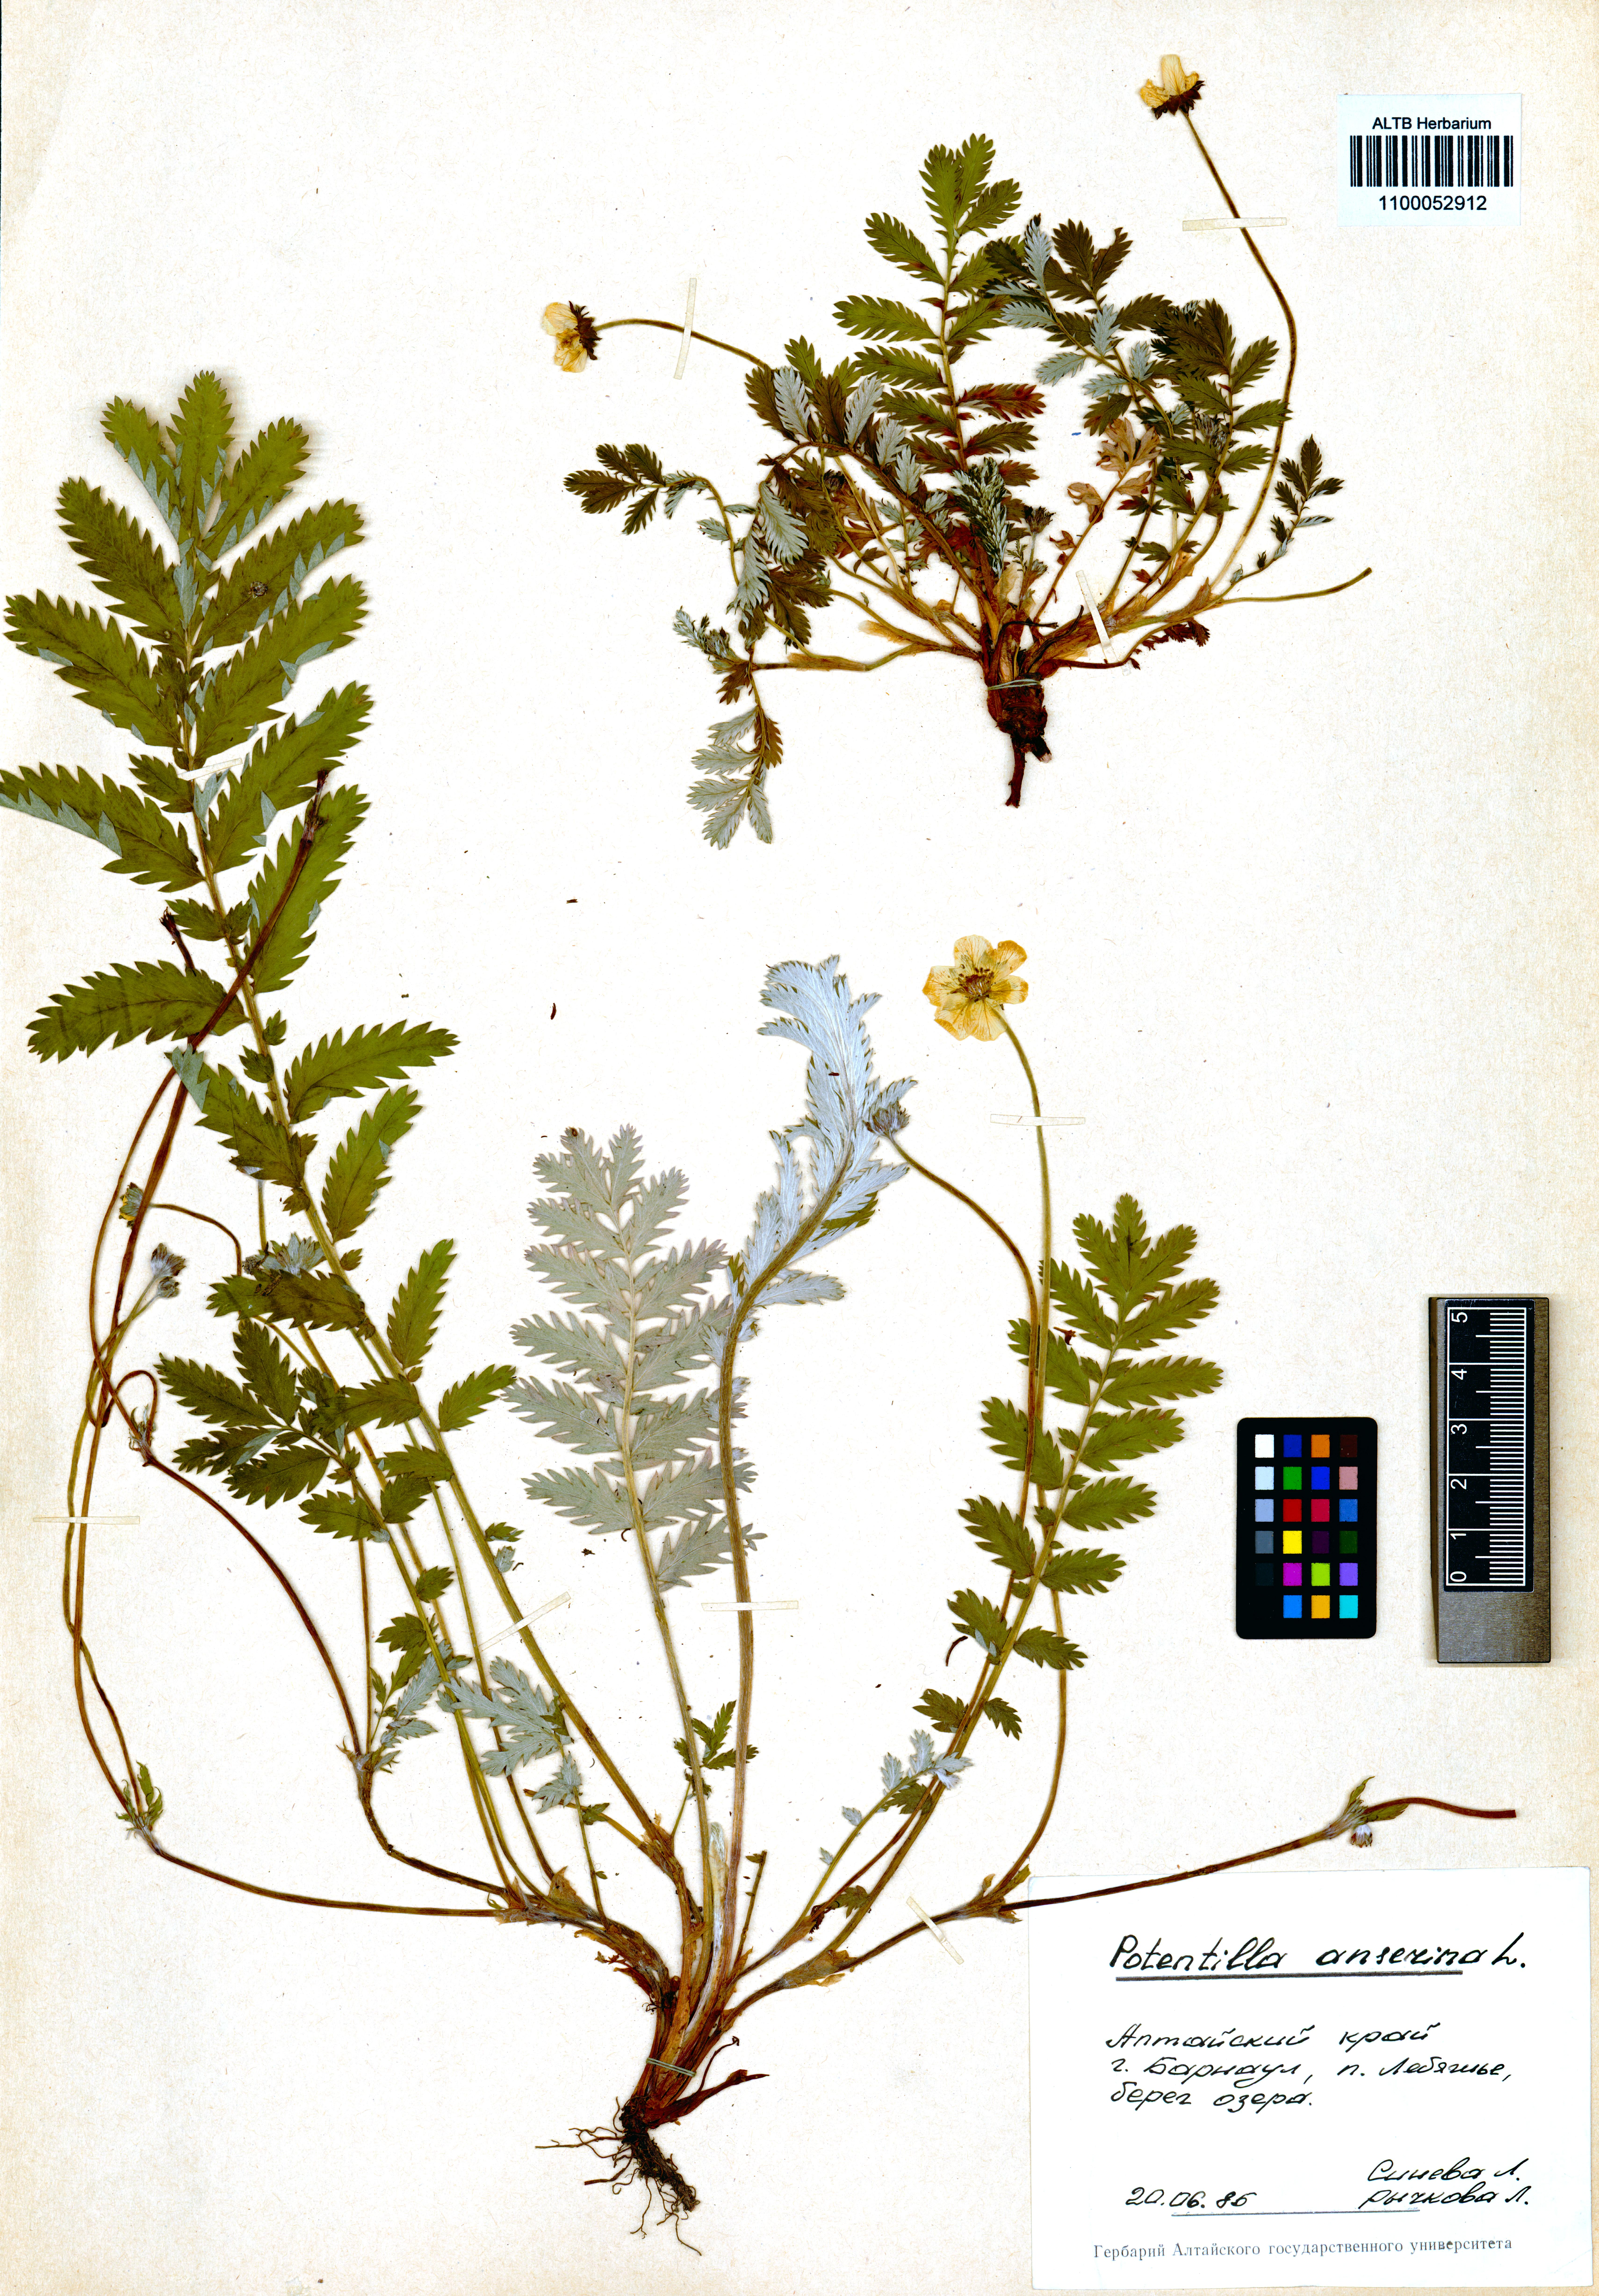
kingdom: Plantae
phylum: Tracheophyta
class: Magnoliopsida
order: Rosales
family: Rosaceae
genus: Argentina
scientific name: Argentina anserina
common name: Common silverweed
